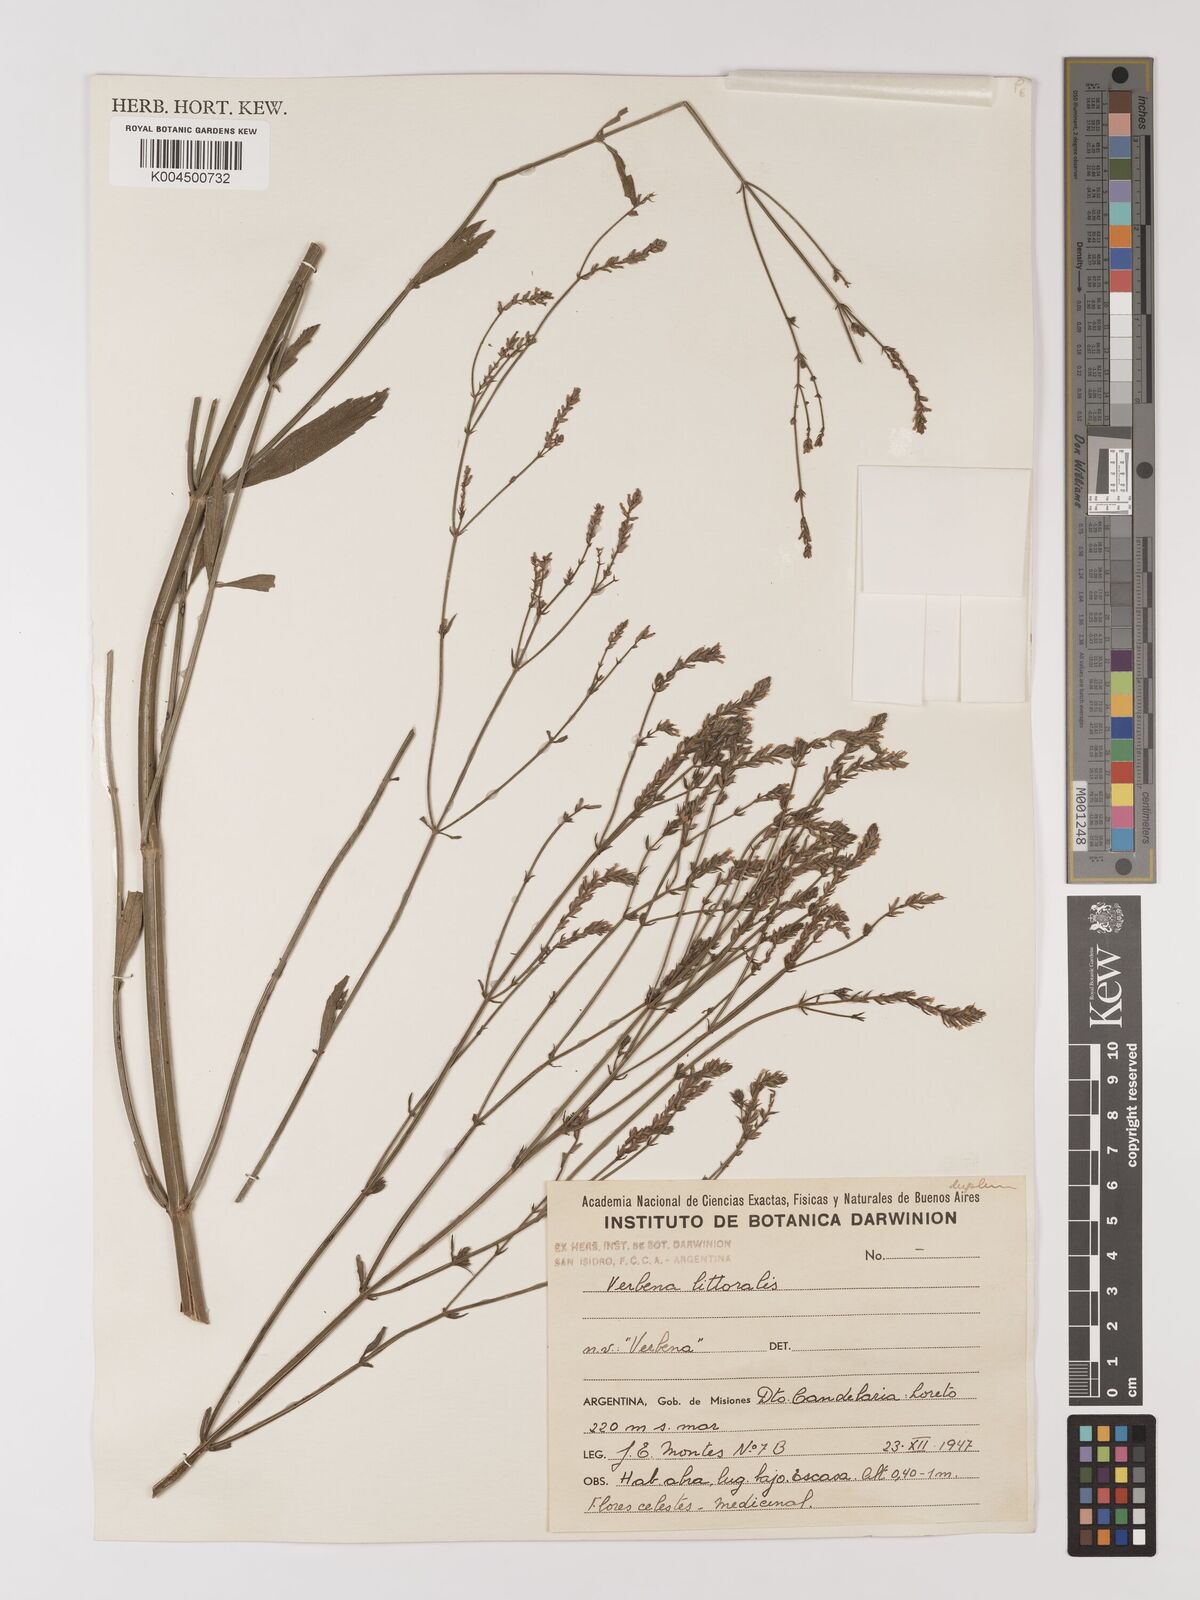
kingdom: Plantae
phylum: Tracheophyta
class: Magnoliopsida
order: Lamiales
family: Verbenaceae
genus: Verbena
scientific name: Verbena litoralis
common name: Seashore vervain
